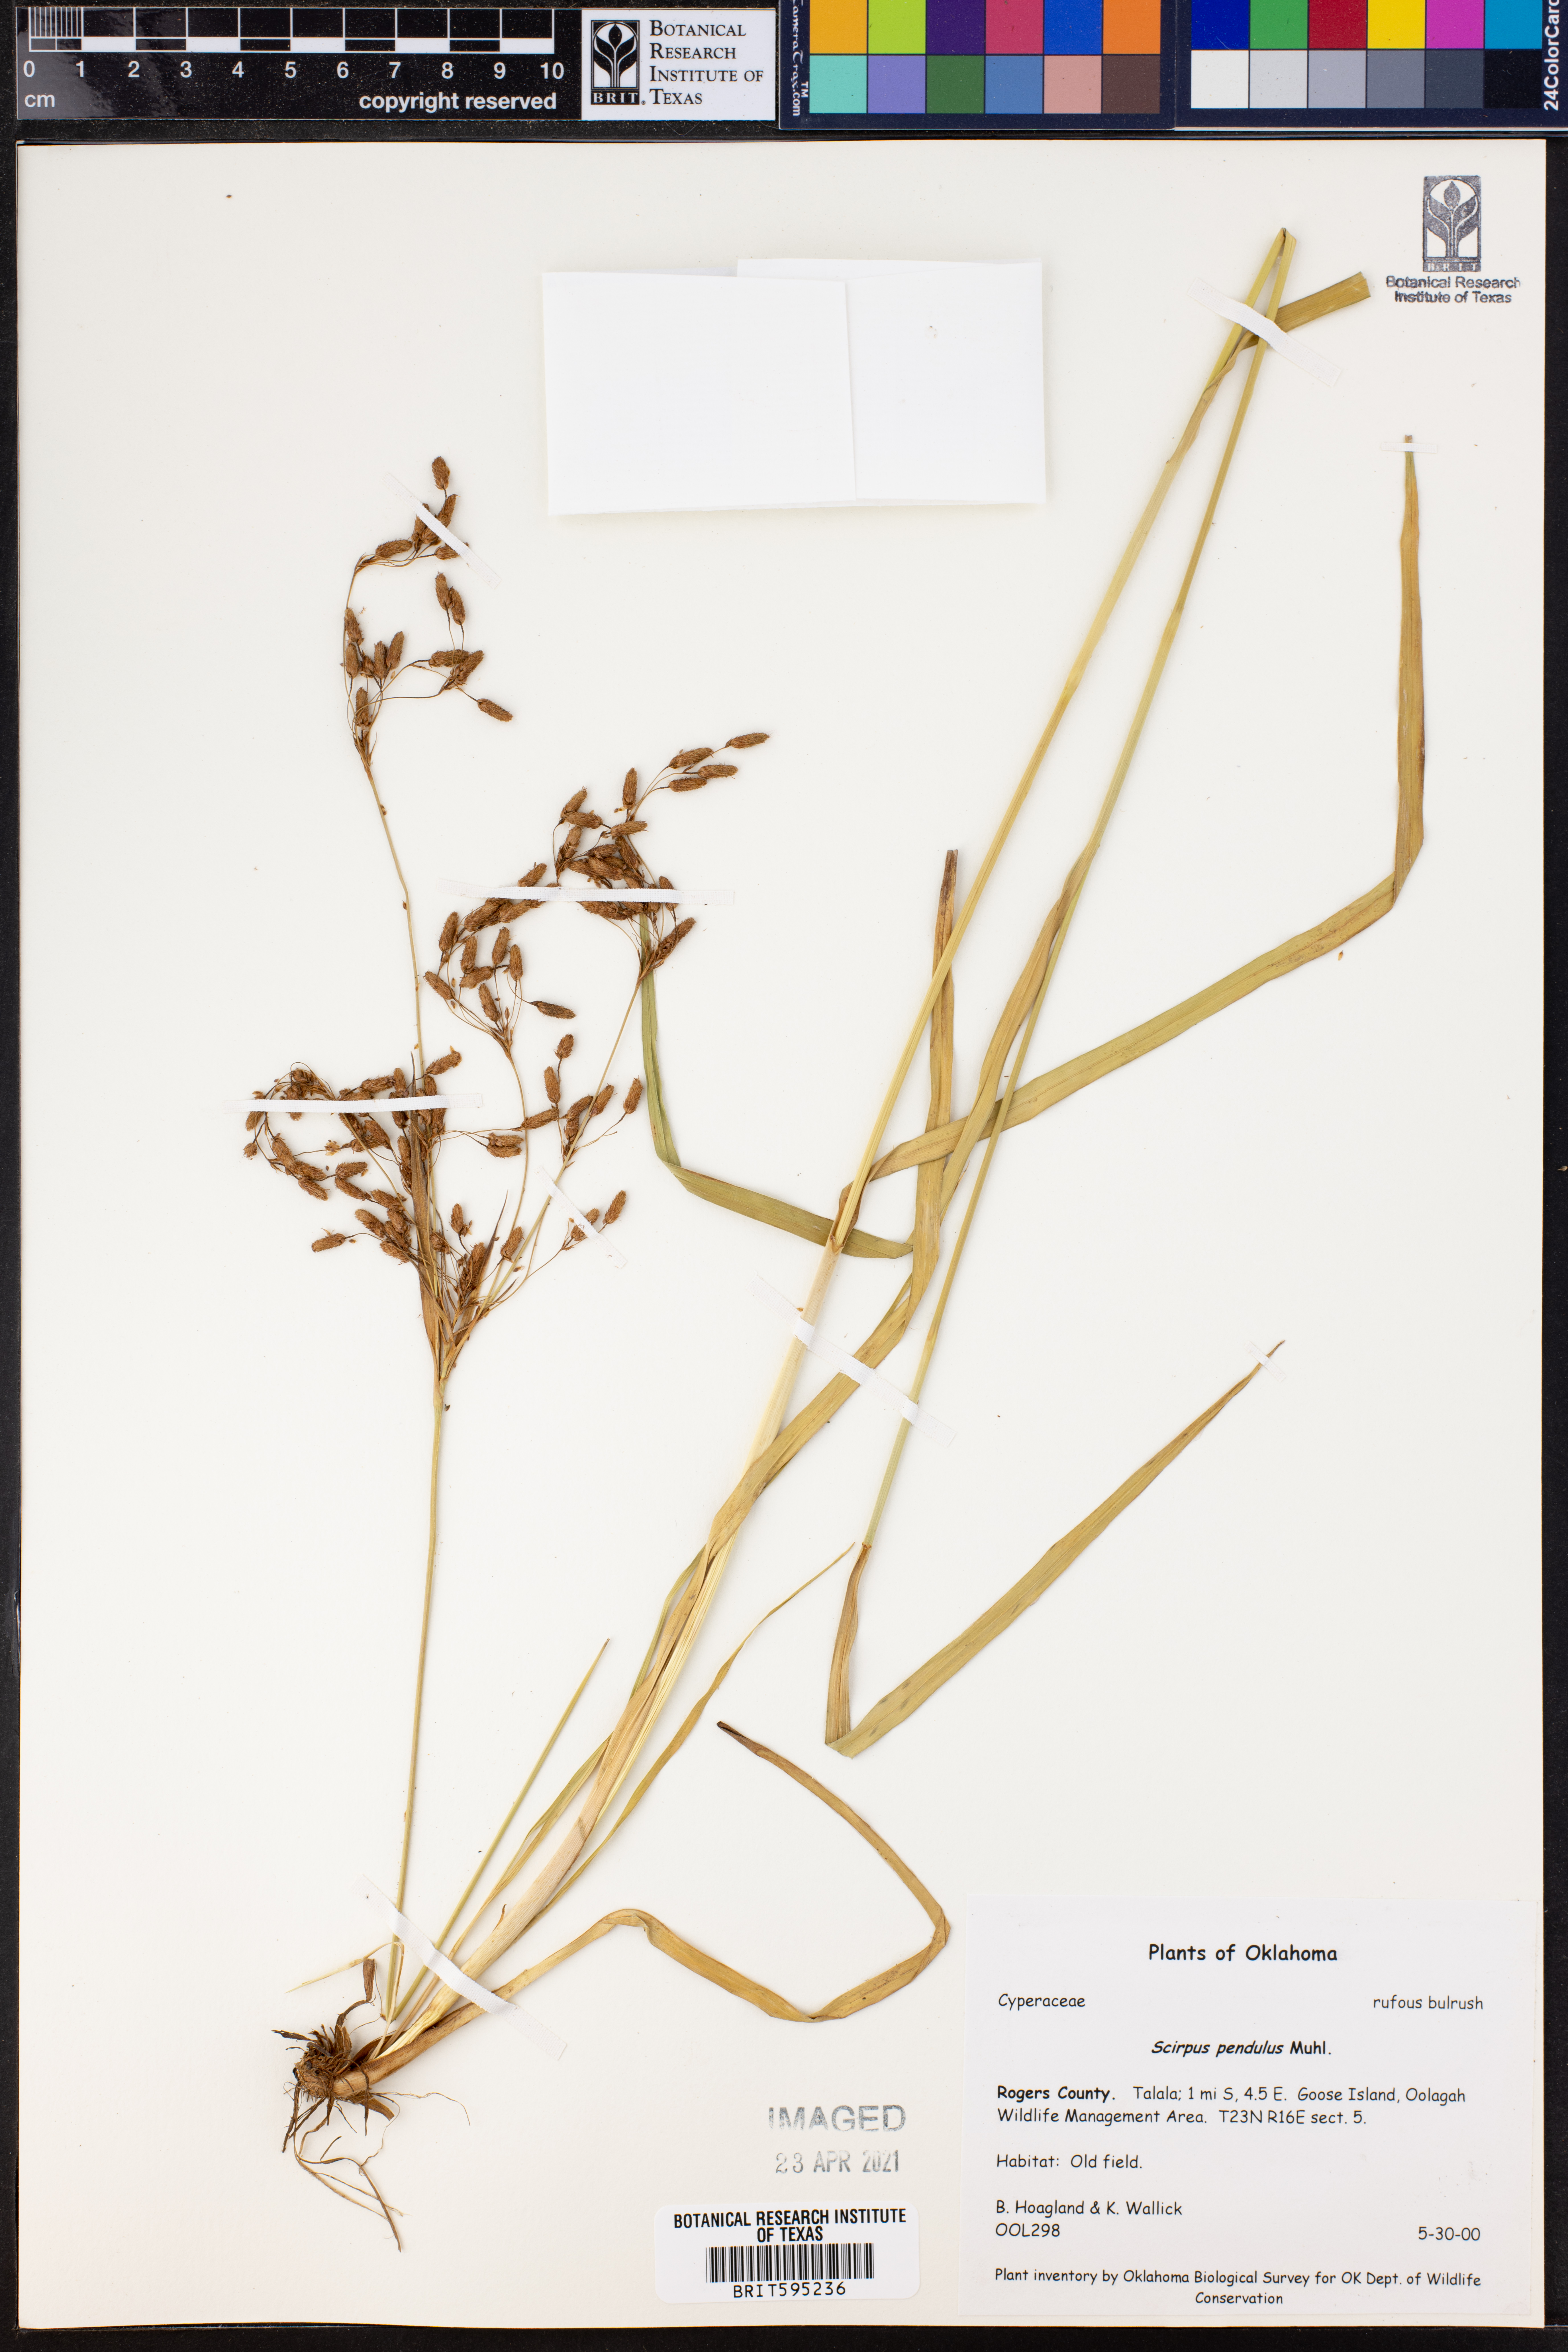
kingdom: Plantae
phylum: Tracheophyta
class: Liliopsida
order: Poales
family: Cyperaceae
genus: Scirpus
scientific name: Scirpus pendulus
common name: Nodding bulrush
